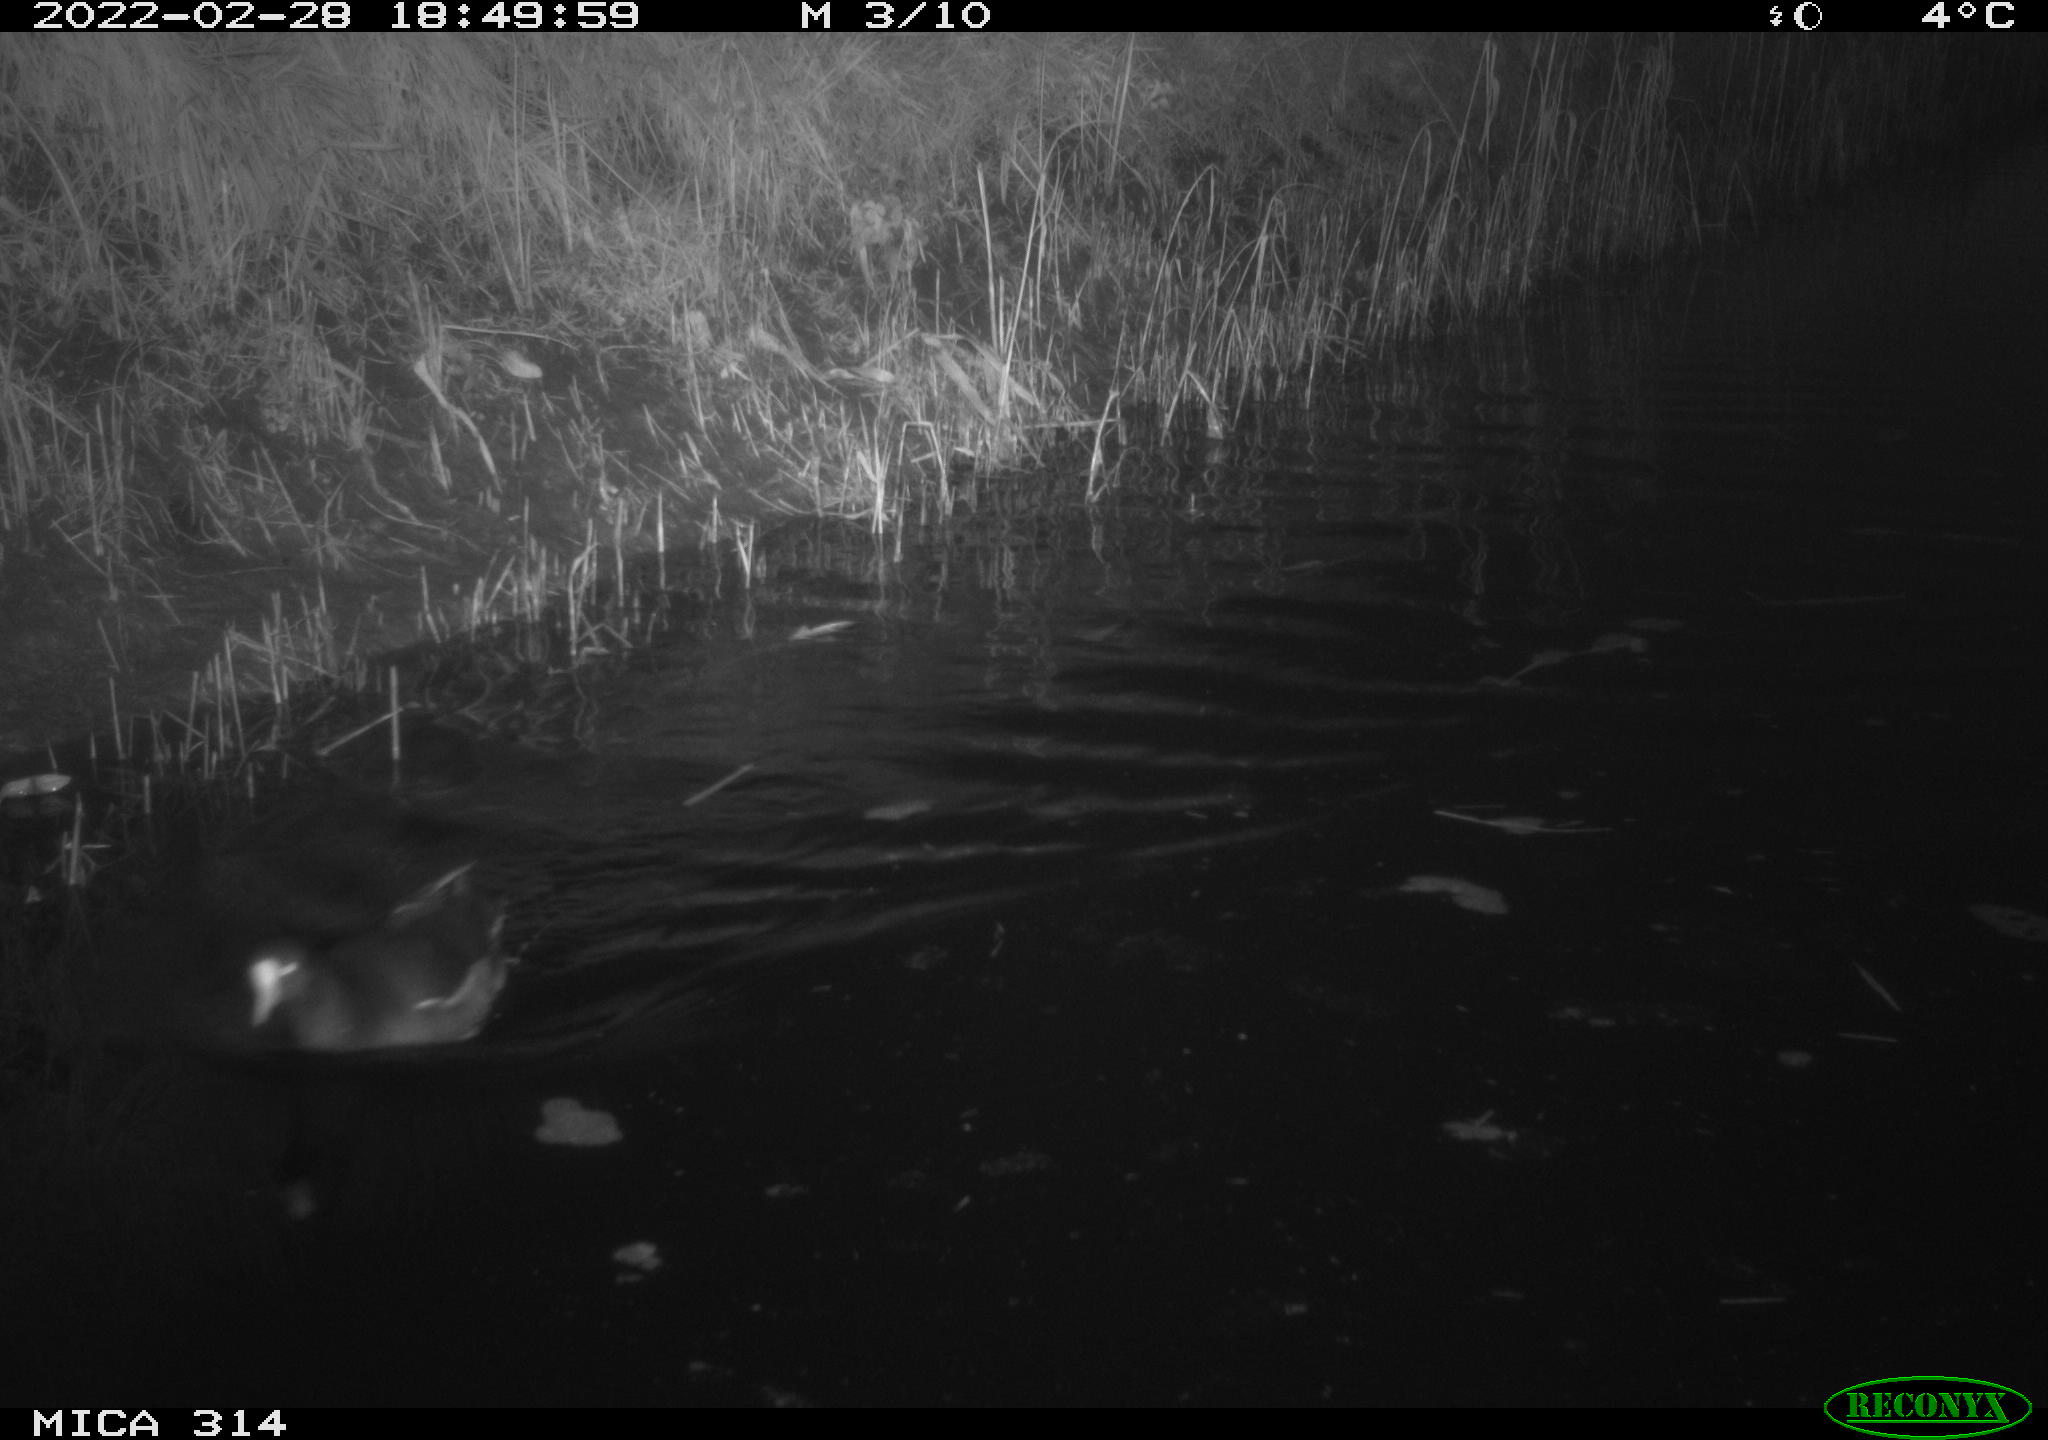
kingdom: Animalia
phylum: Chordata
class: Aves
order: Gruiformes
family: Rallidae
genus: Gallinula
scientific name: Gallinula chloropus
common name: Common moorhen
